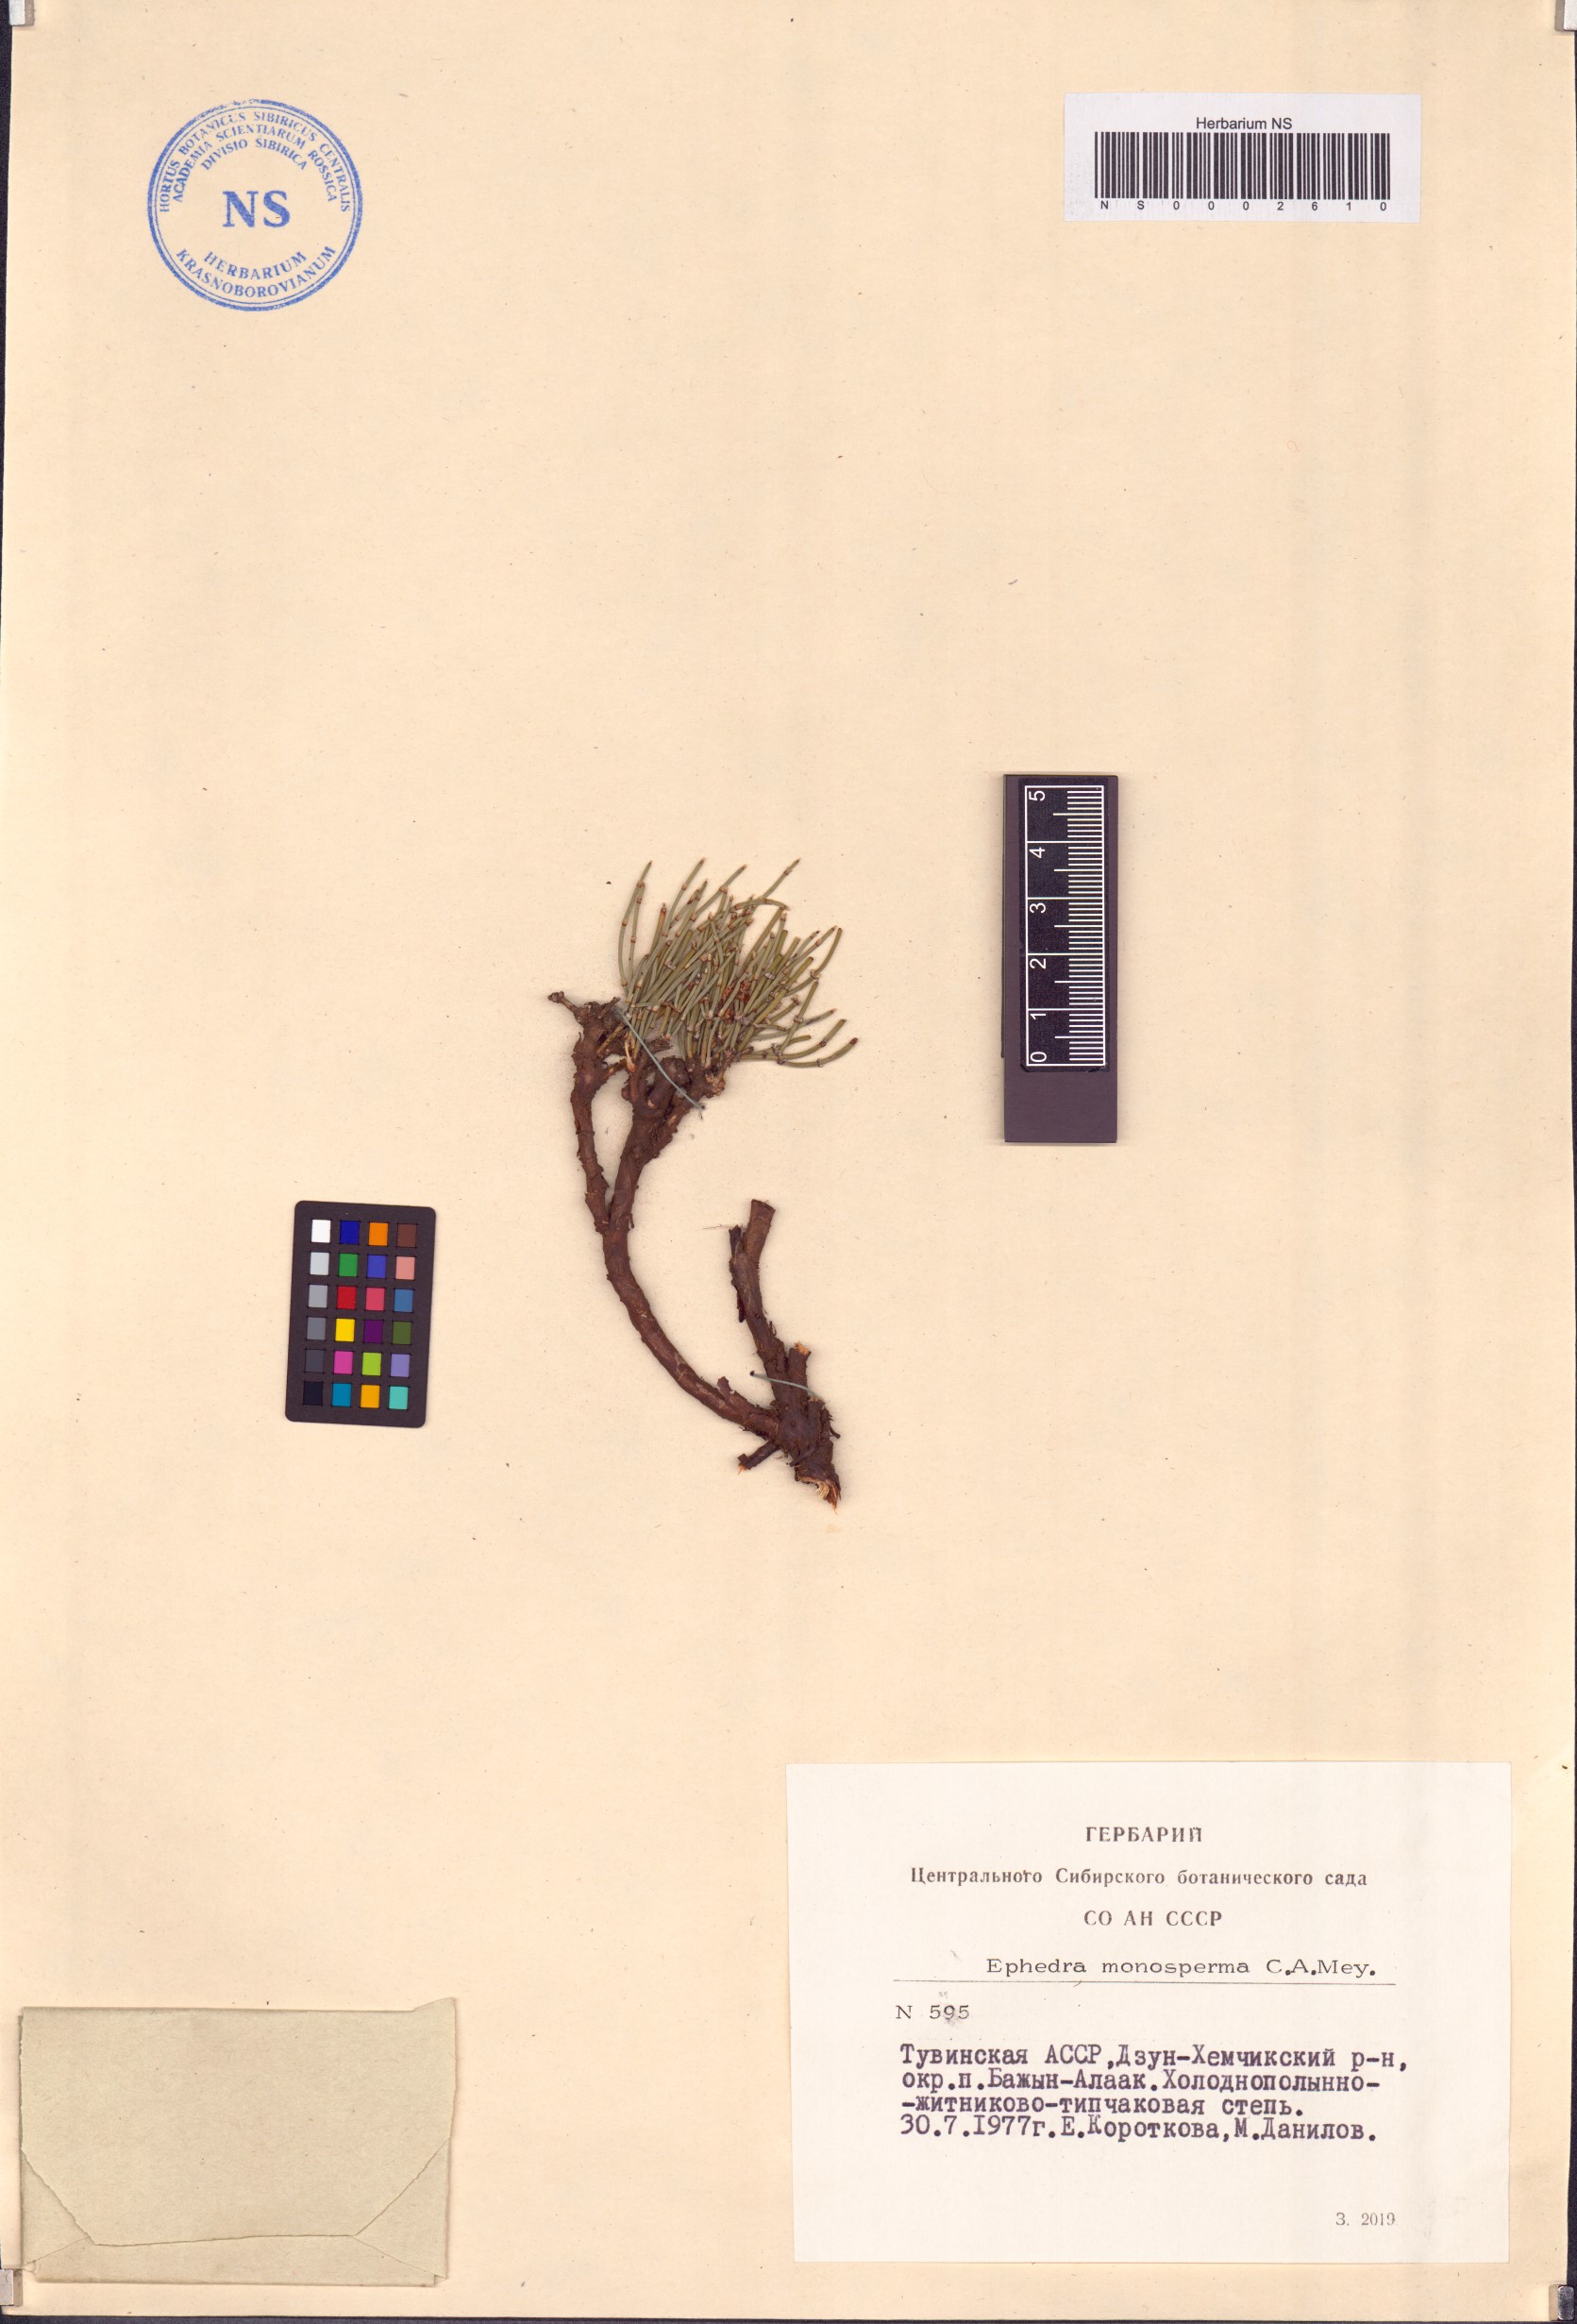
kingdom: Plantae
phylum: Tracheophyta
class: Gnetopsida
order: Ephedrales
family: Ephedraceae
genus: Ephedra
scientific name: Ephedra monosperma
